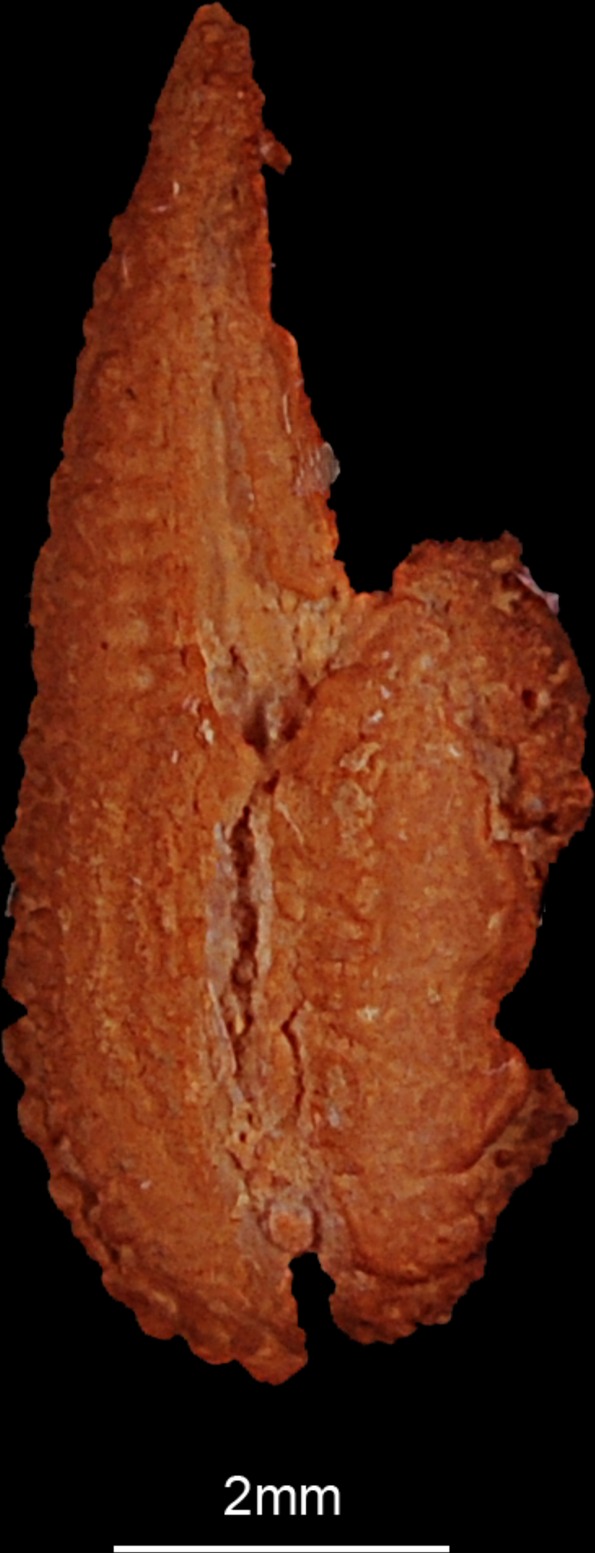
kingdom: Animalia
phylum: Chordata
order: Esociformes
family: Esocidae
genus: Esox
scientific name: Esox lucius
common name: Northern pike
